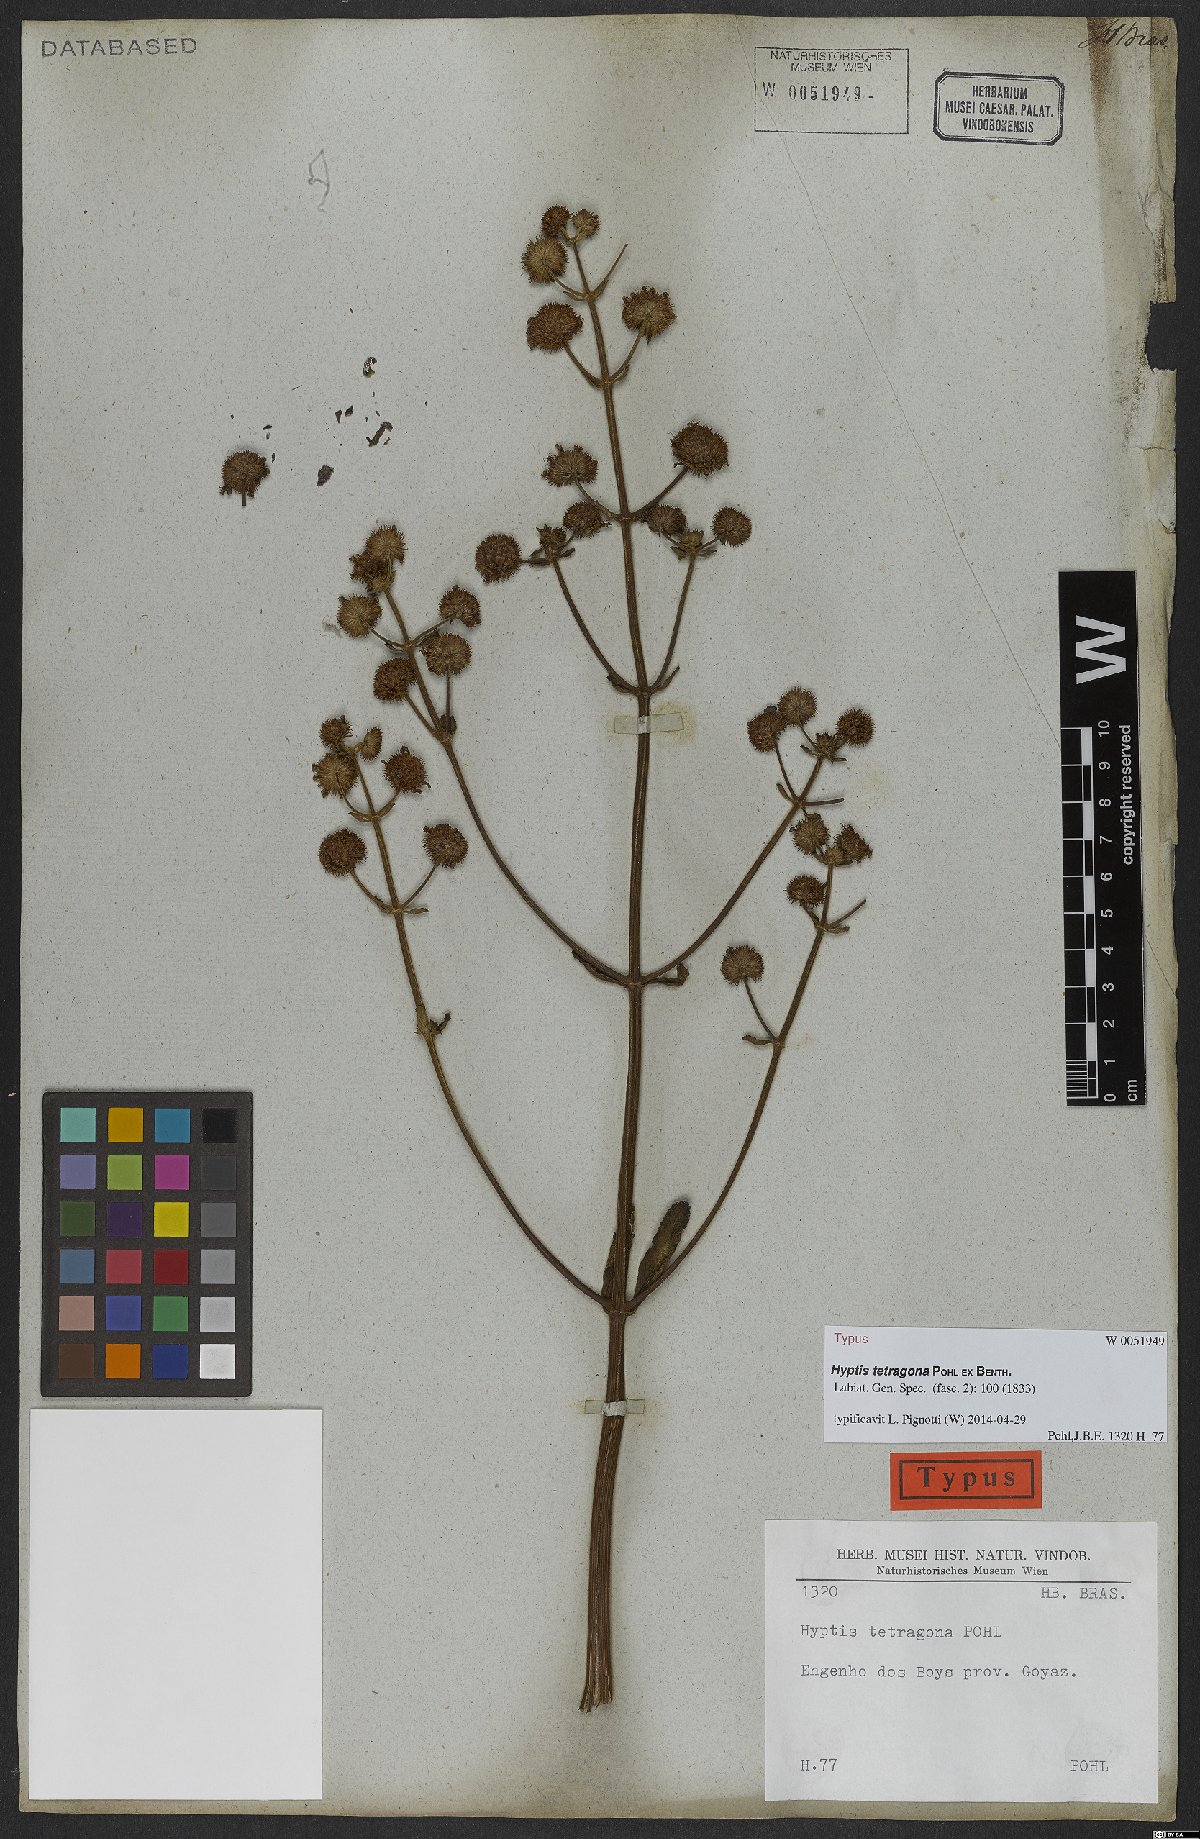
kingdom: Plantae
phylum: Tracheophyta
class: Magnoliopsida
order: Lamiales
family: Lamiaceae
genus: Hyptis
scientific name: Hyptis tetragona
